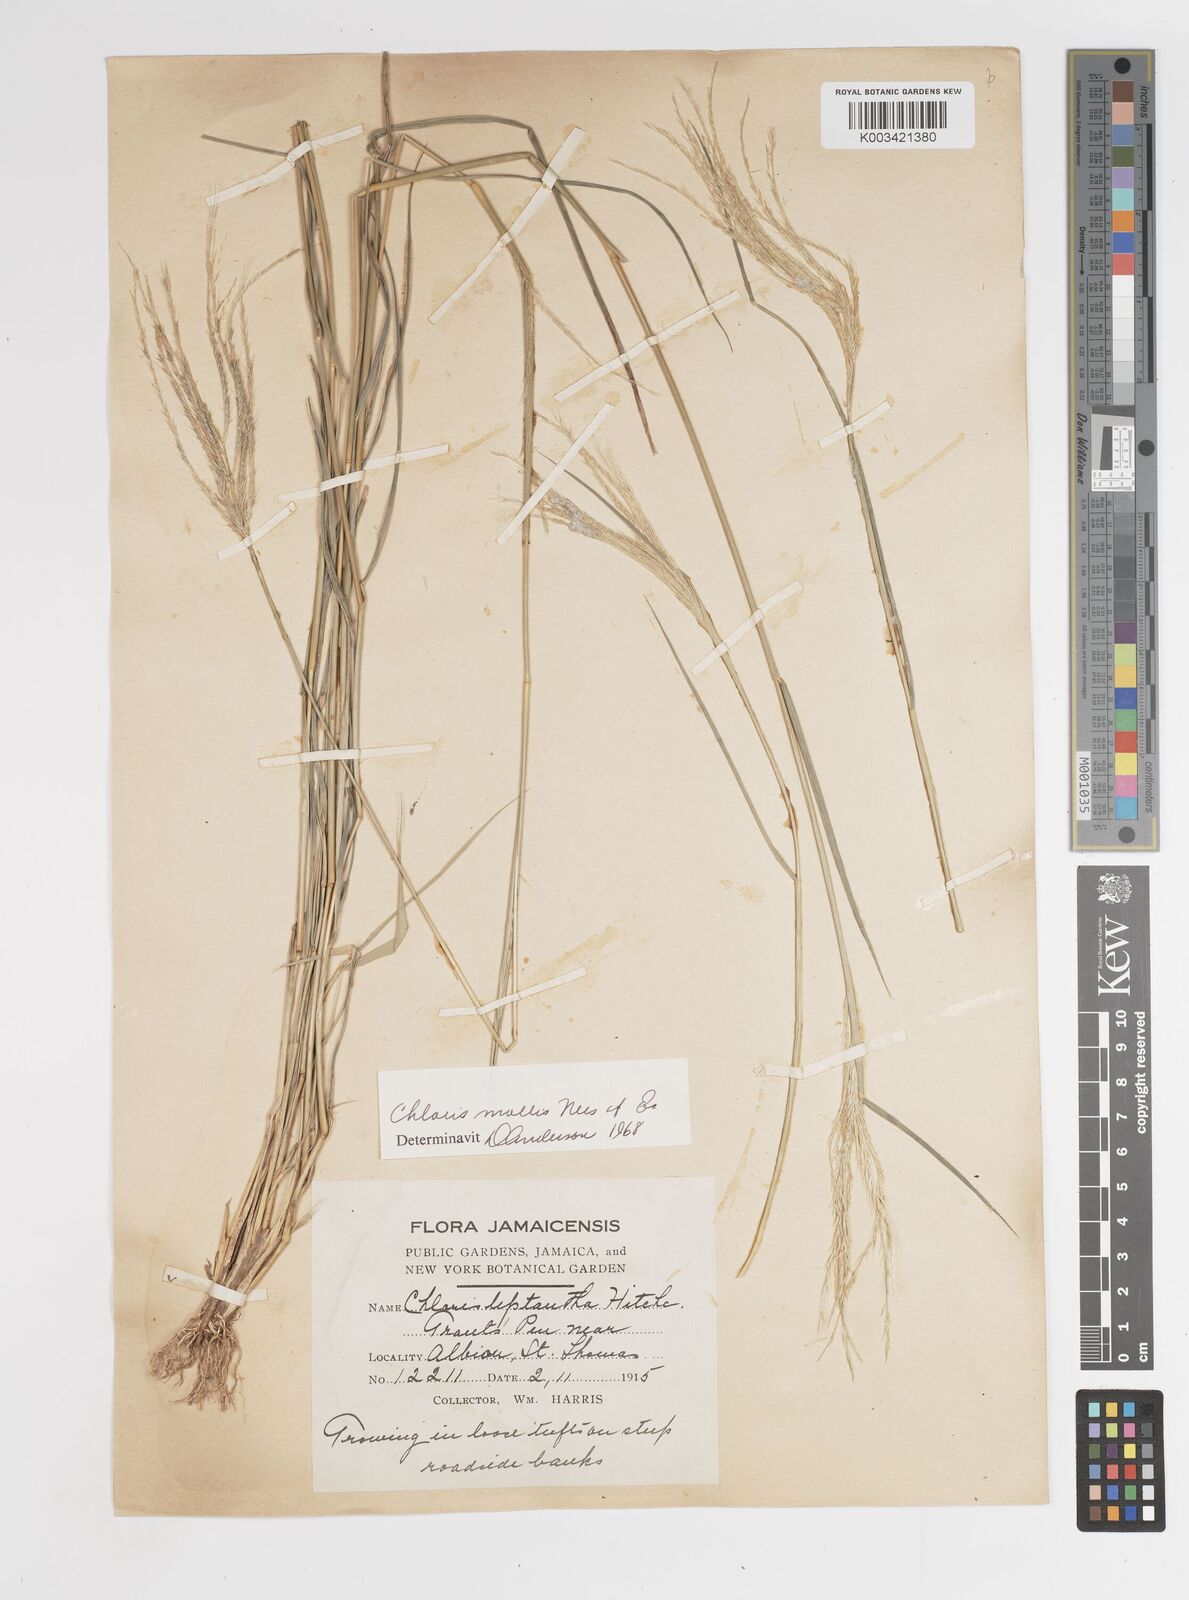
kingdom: Plantae
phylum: Tracheophyta
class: Liliopsida
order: Poales
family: Poaceae
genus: Leptochloa
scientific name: Leptochloa anisopoda
